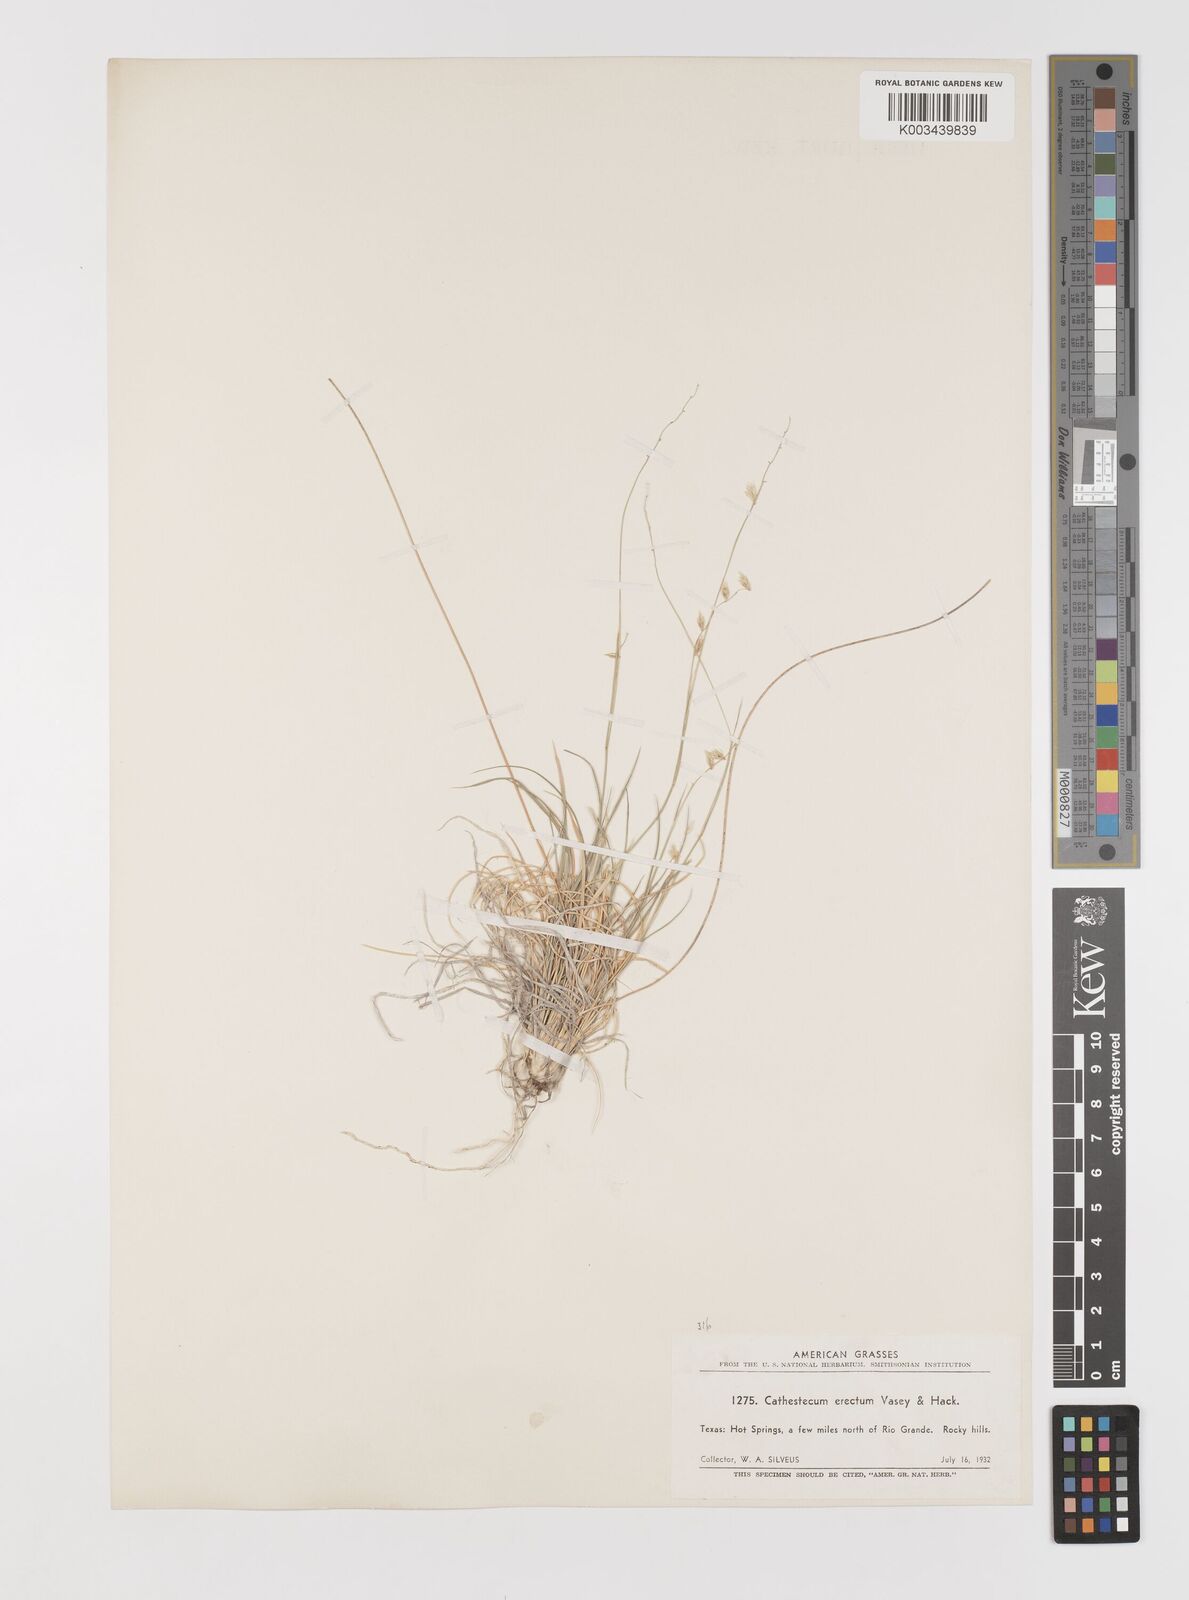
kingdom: Plantae
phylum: Tracheophyta
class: Liliopsida
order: Poales
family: Poaceae
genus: Bouteloua
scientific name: Bouteloua erecta
